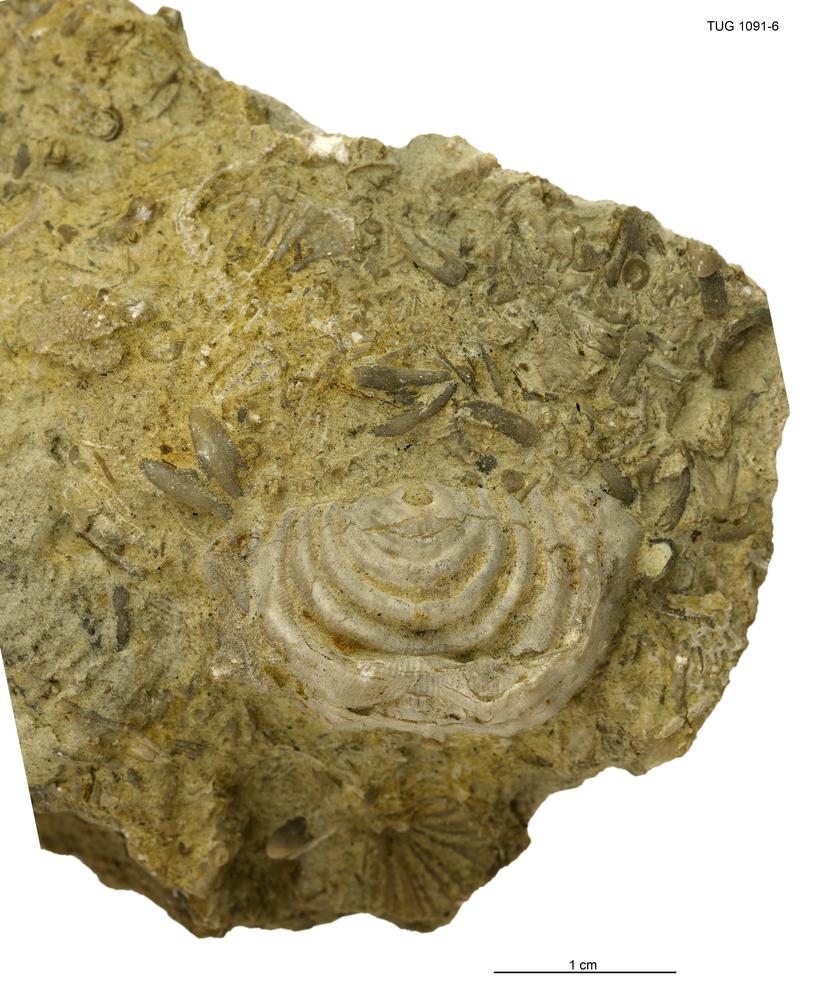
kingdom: Animalia
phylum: Brachiopoda
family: Strophomenidae
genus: Leptaena
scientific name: Leptaena
